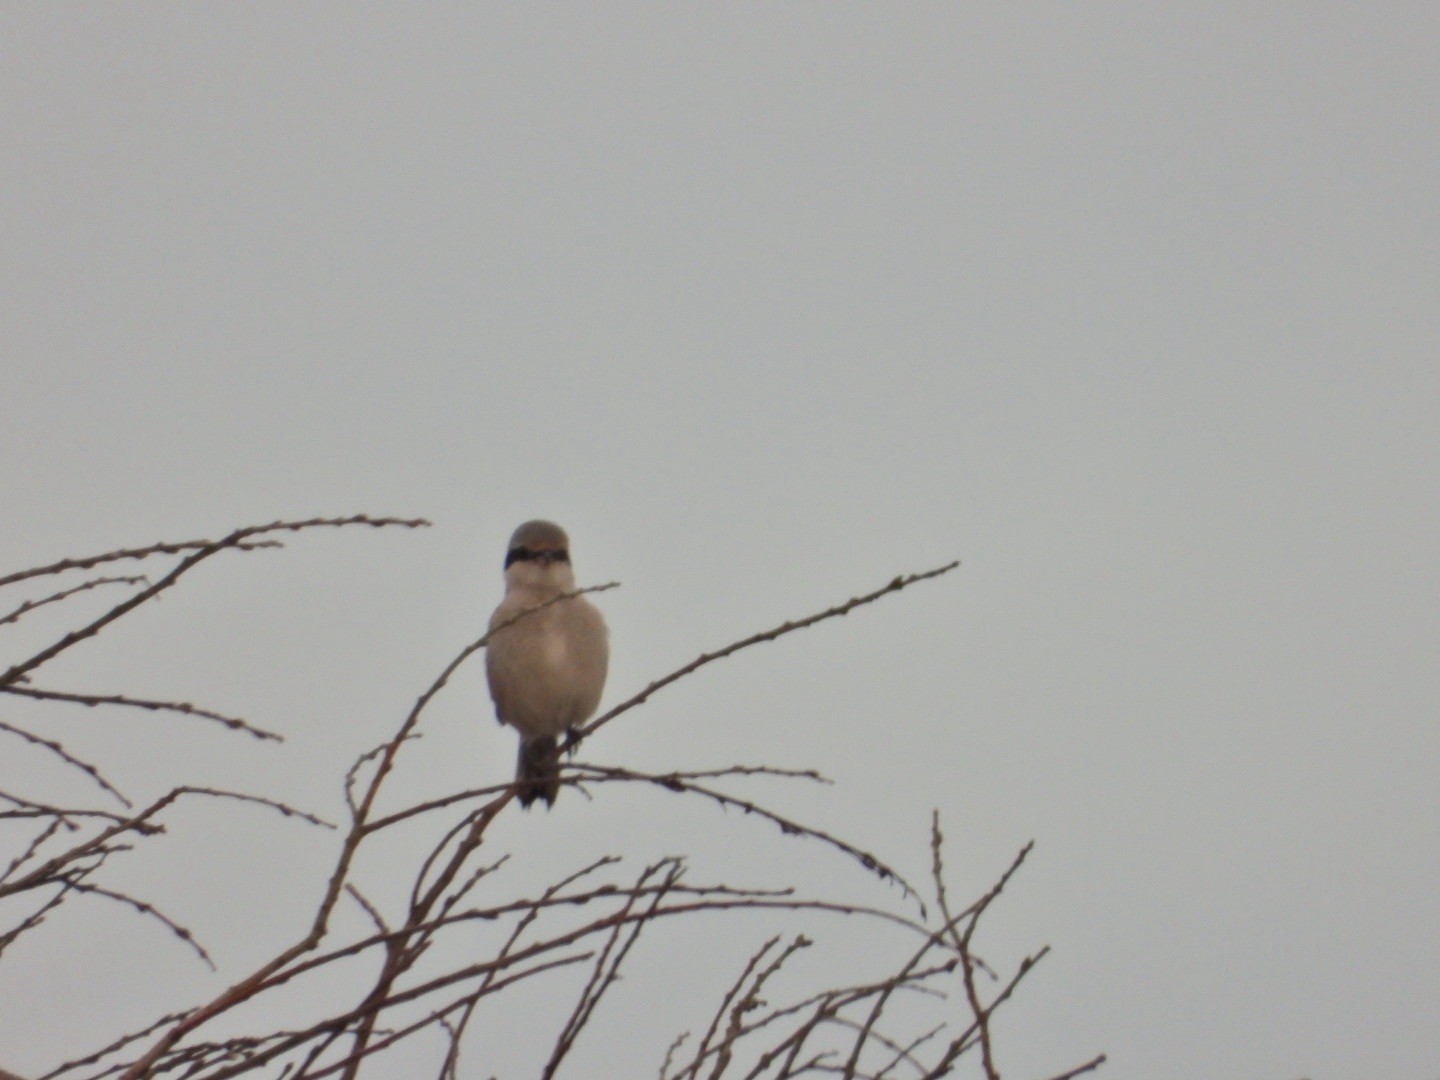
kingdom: Animalia
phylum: Chordata
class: Aves
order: Passeriformes
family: Laniidae
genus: Lanius
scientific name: Lanius excubitor
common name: Stor tornskade
